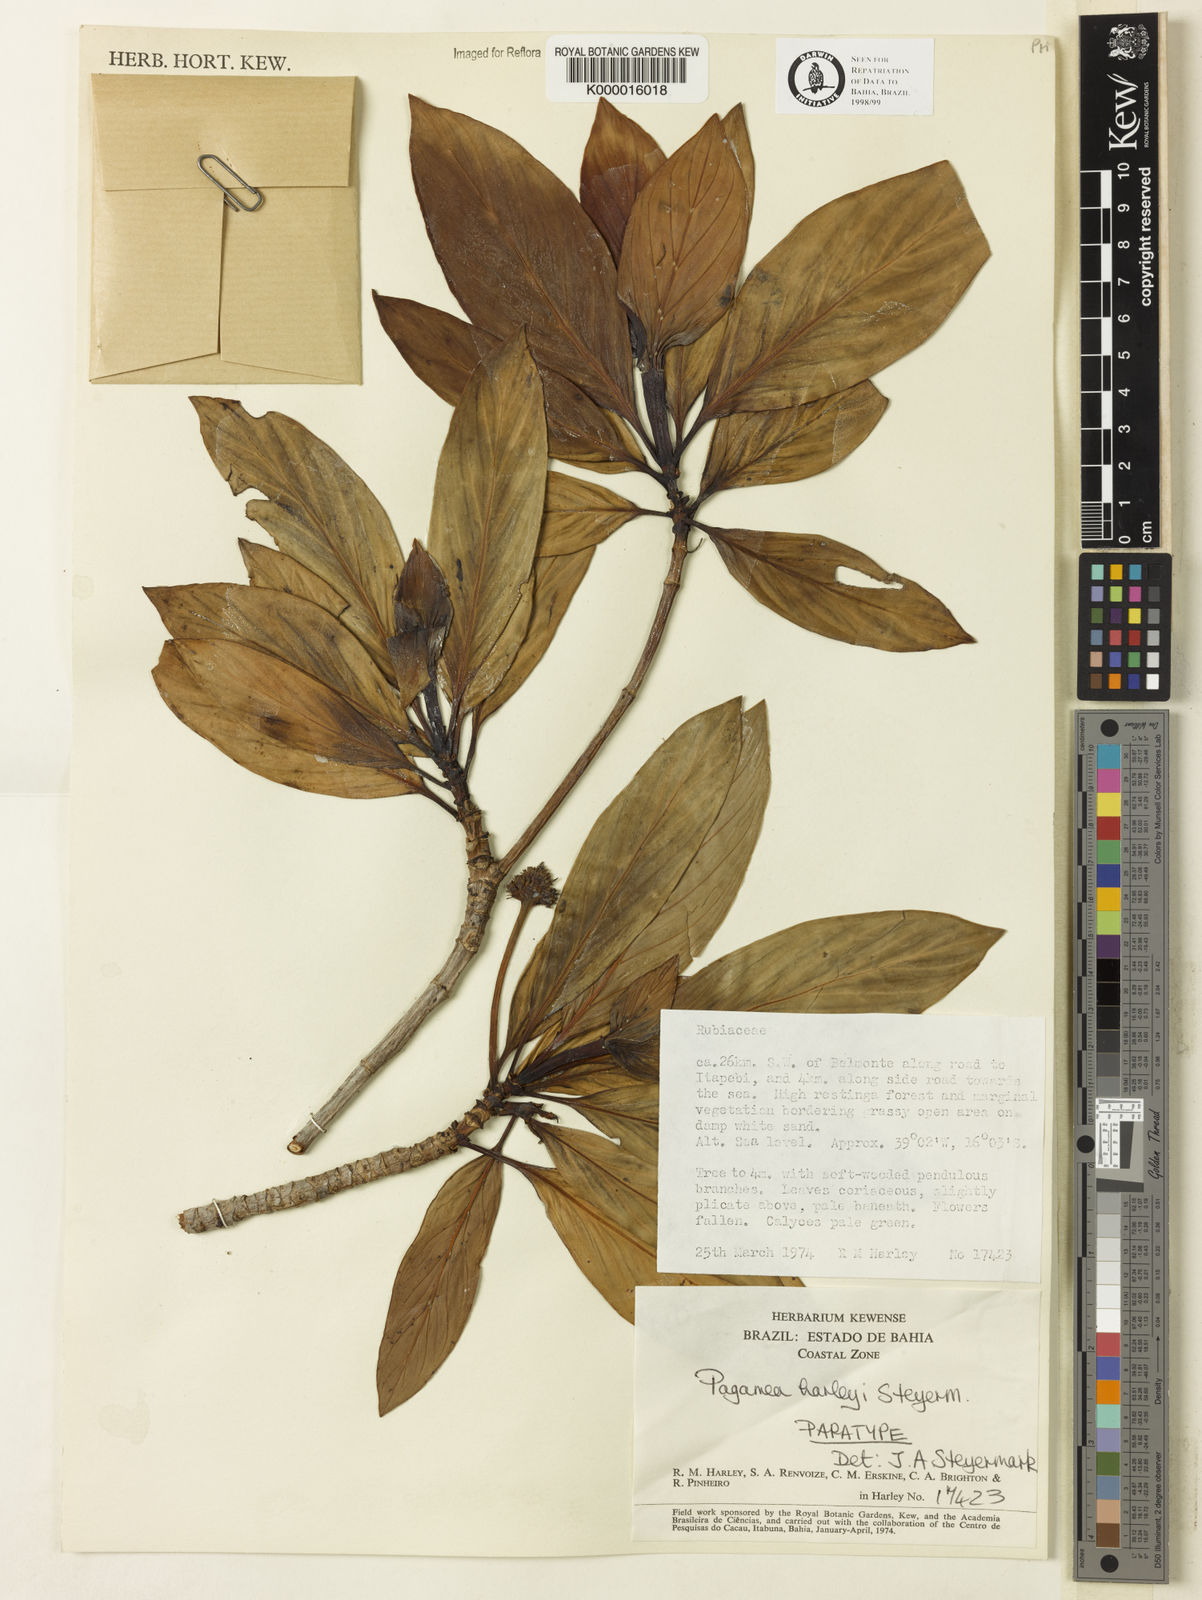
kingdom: Plantae
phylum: Tracheophyta
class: Magnoliopsida
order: Gentianales
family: Rubiaceae
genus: Pagamea
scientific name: Pagamea harleyi
